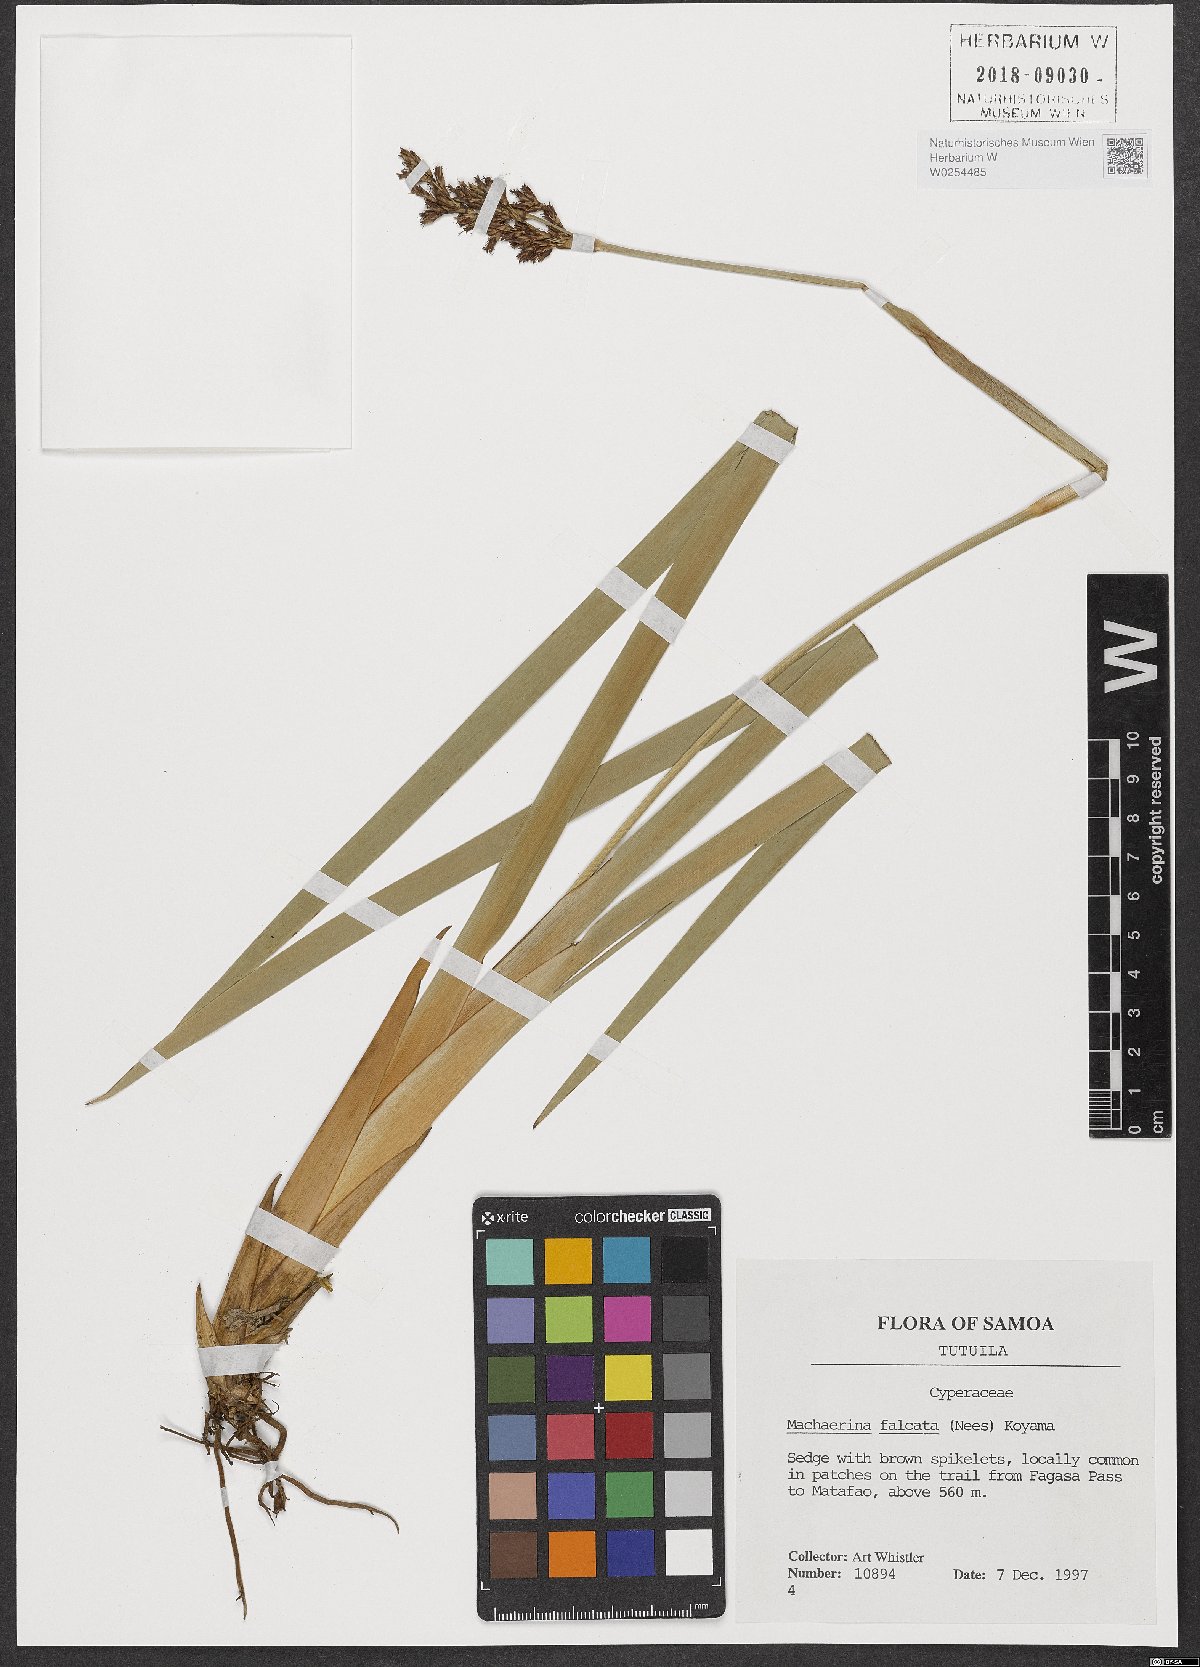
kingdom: Plantae
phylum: Tracheophyta
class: Liliopsida
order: Poales
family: Cyperaceae
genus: Machaerina
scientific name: Machaerina falcata
